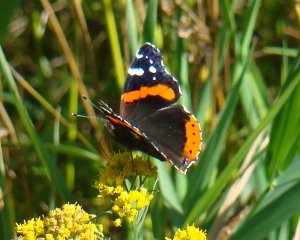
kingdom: Animalia
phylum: Arthropoda
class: Insecta
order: Lepidoptera
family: Nymphalidae
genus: Vanessa
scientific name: Vanessa atalanta
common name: Red Admiral
